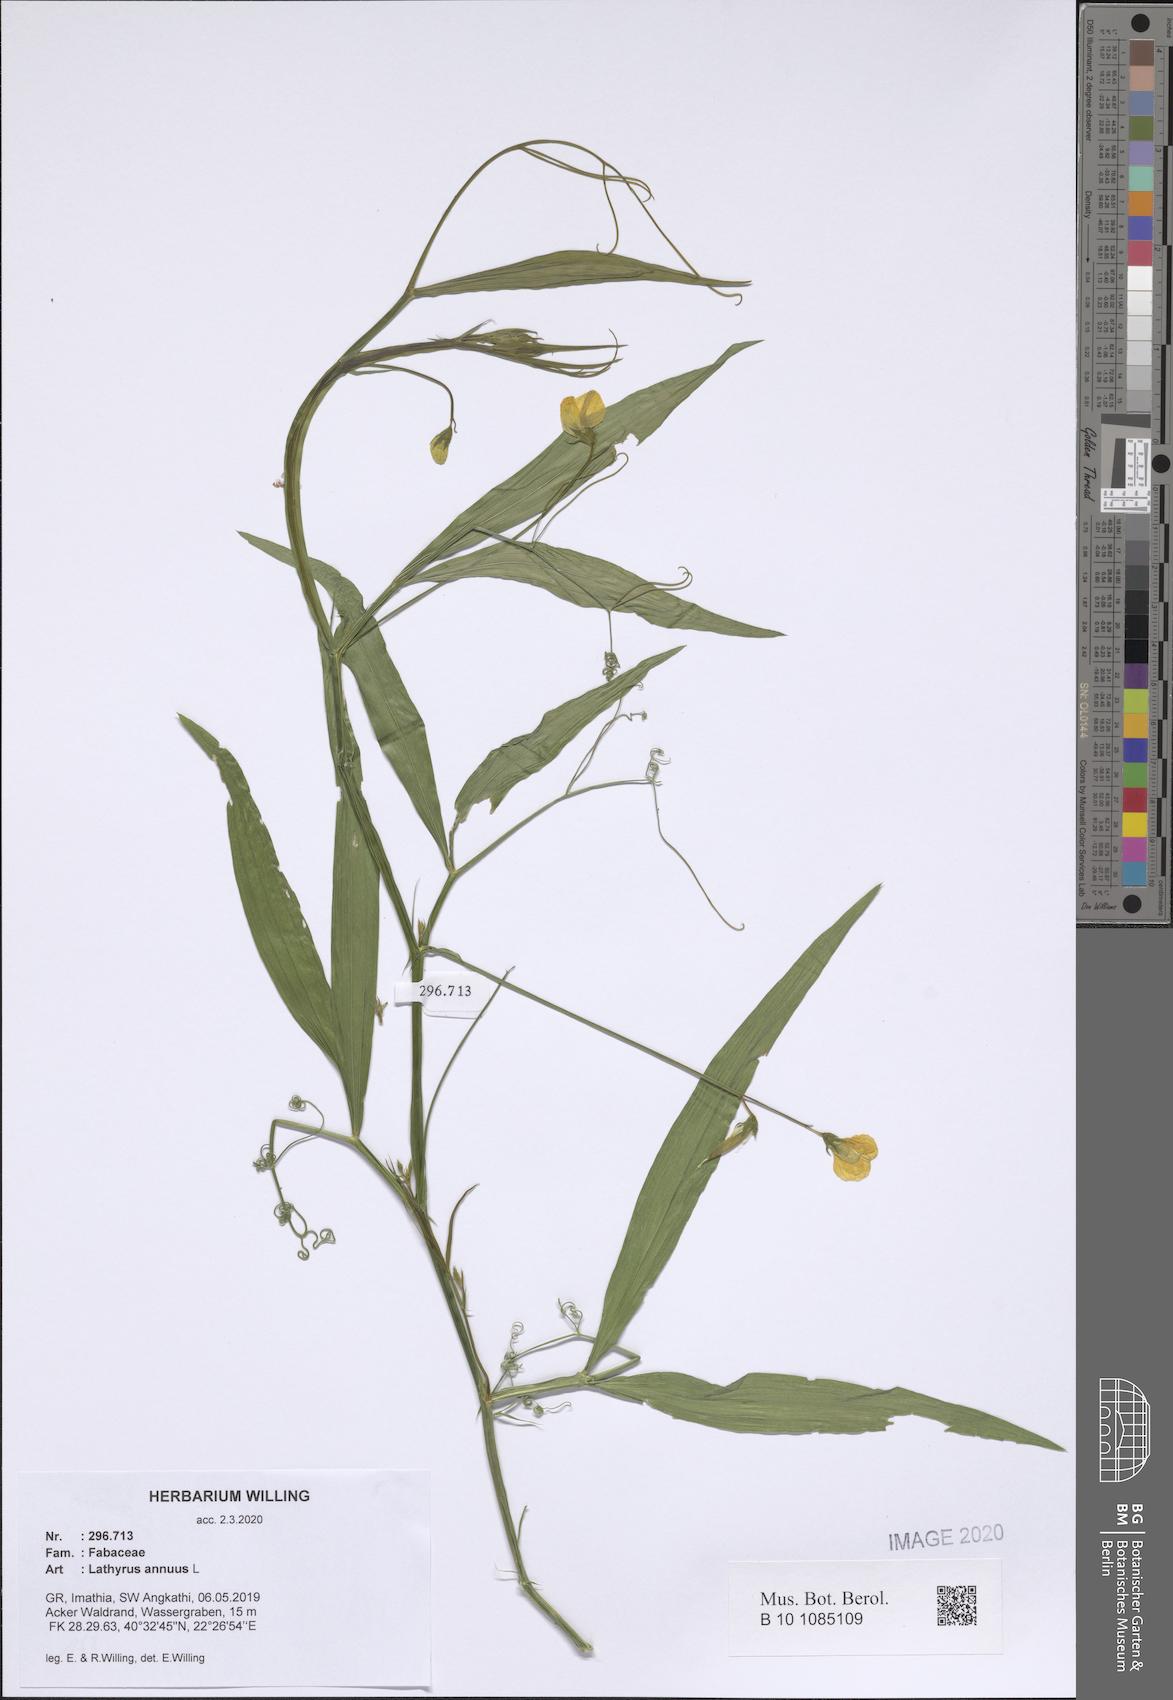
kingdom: Plantae
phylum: Tracheophyta
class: Magnoliopsida
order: Fabales
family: Fabaceae
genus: Lathyrus
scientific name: Lathyrus annuus
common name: Fodder pea
